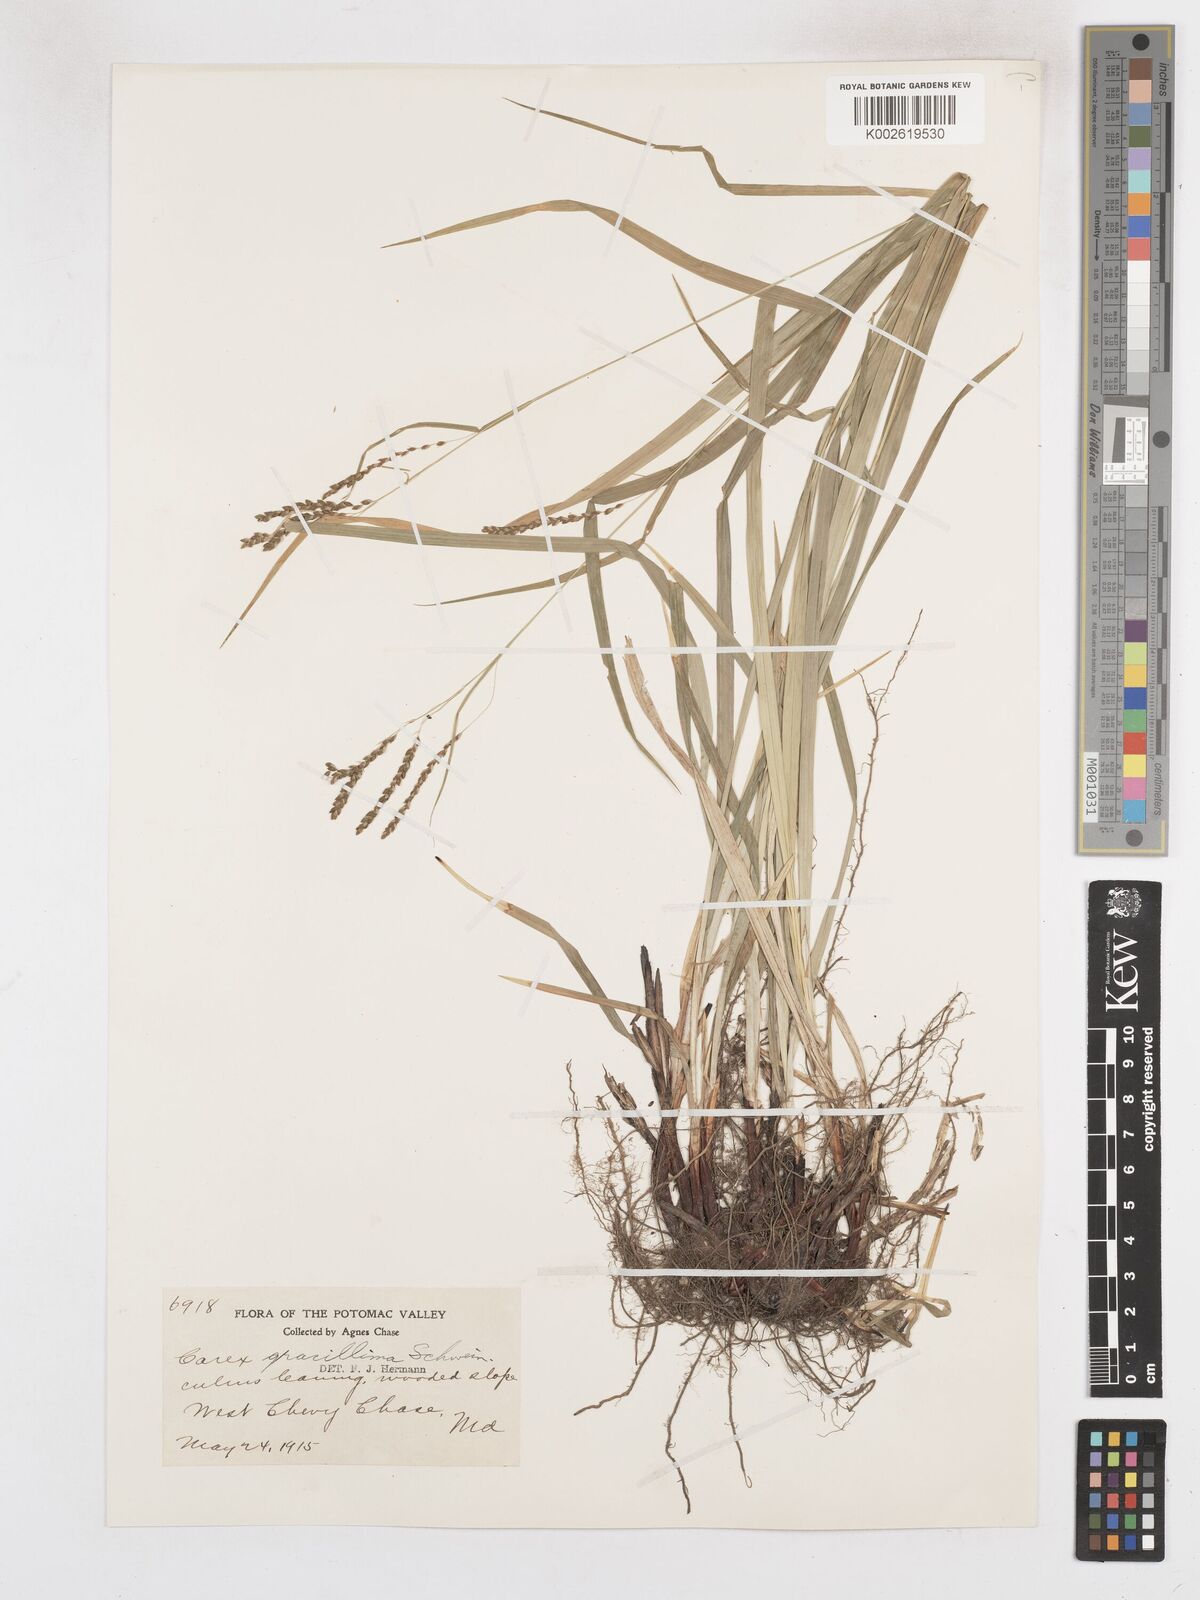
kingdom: Plantae
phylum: Tracheophyta
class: Liliopsida
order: Poales
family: Cyperaceae
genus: Carex
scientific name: Carex gracillima
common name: Graceful sedge
